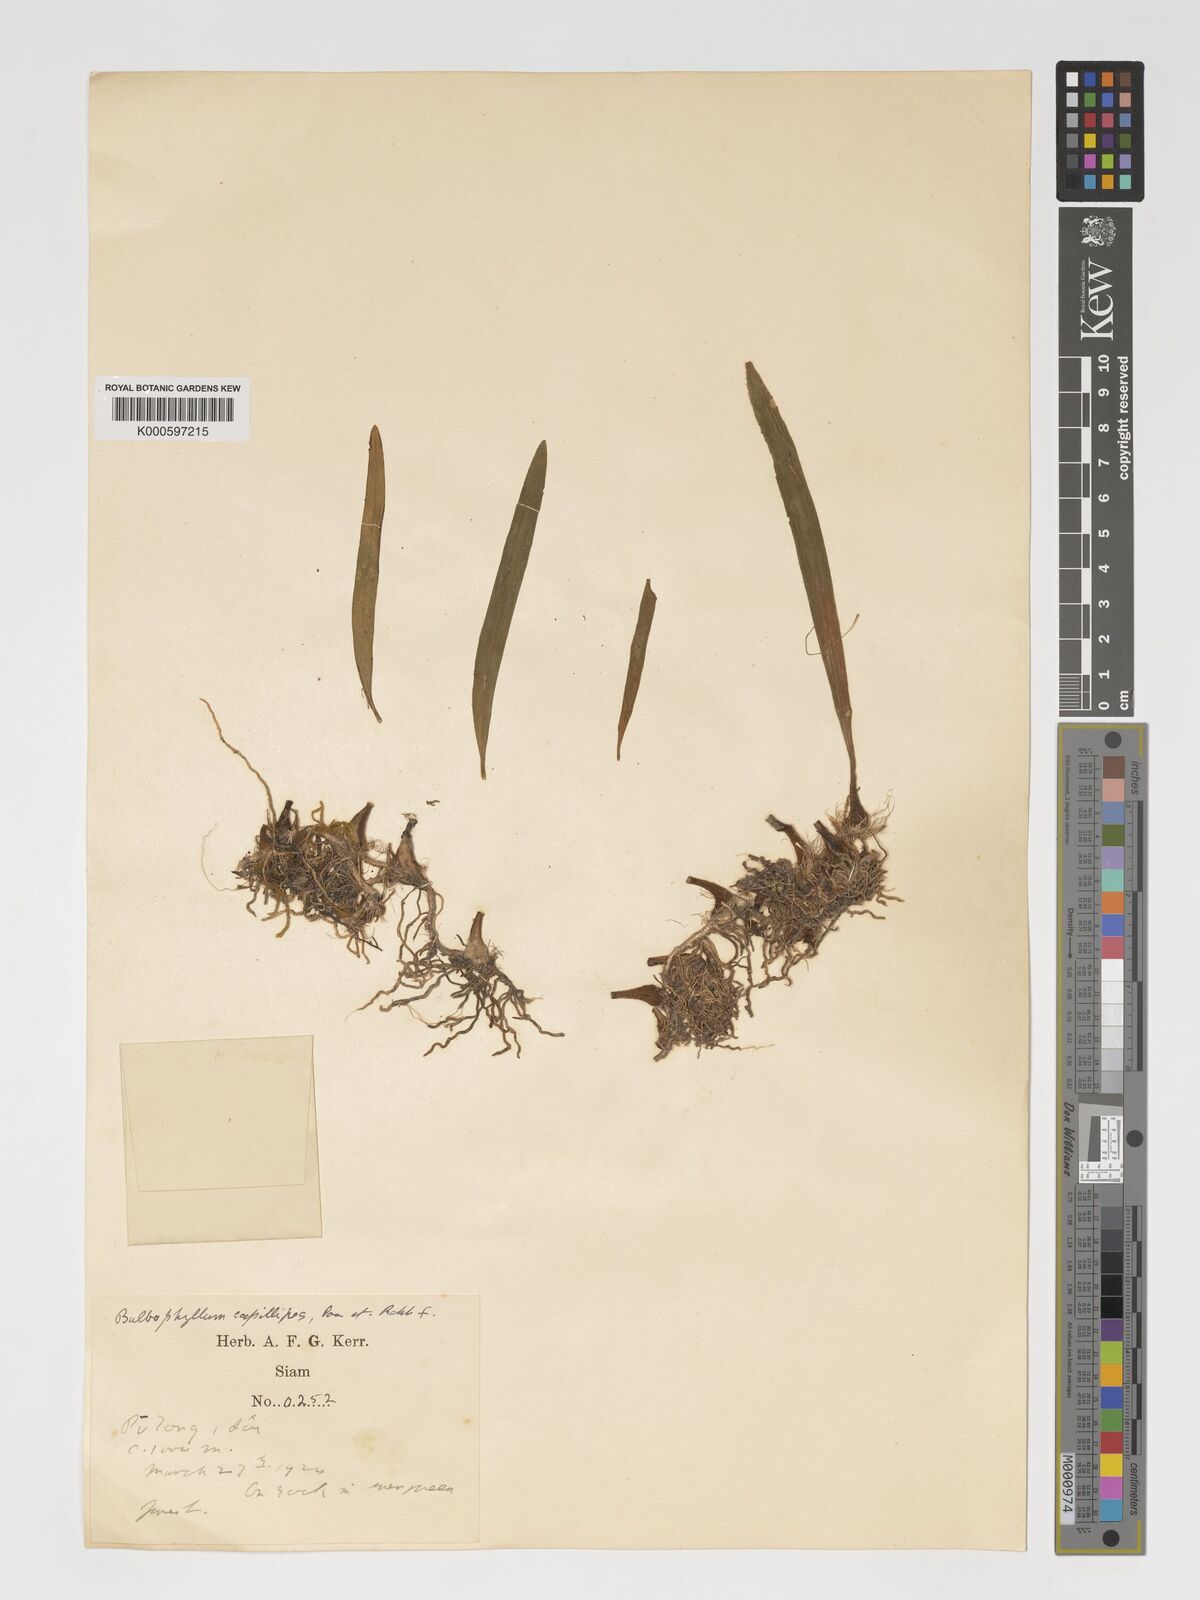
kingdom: Plantae
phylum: Tracheophyta
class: Liliopsida
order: Asparagales
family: Orchidaceae
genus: Bulbophyllum
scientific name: Bulbophyllum capillipes
